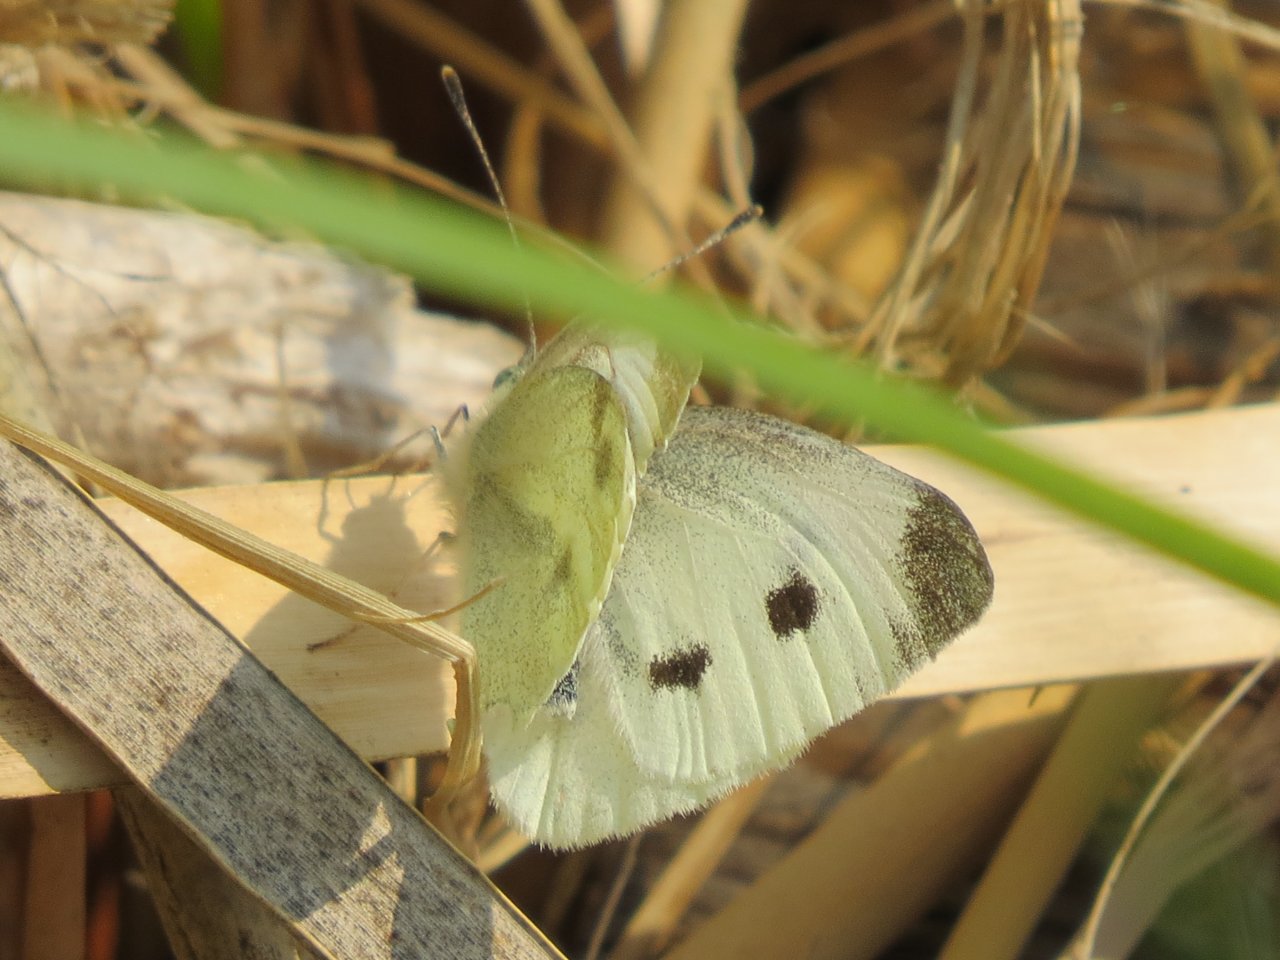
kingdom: Animalia
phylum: Arthropoda
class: Insecta
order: Lepidoptera
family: Pieridae
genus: Pieris
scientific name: Pieris rapae
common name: Cabbage White
